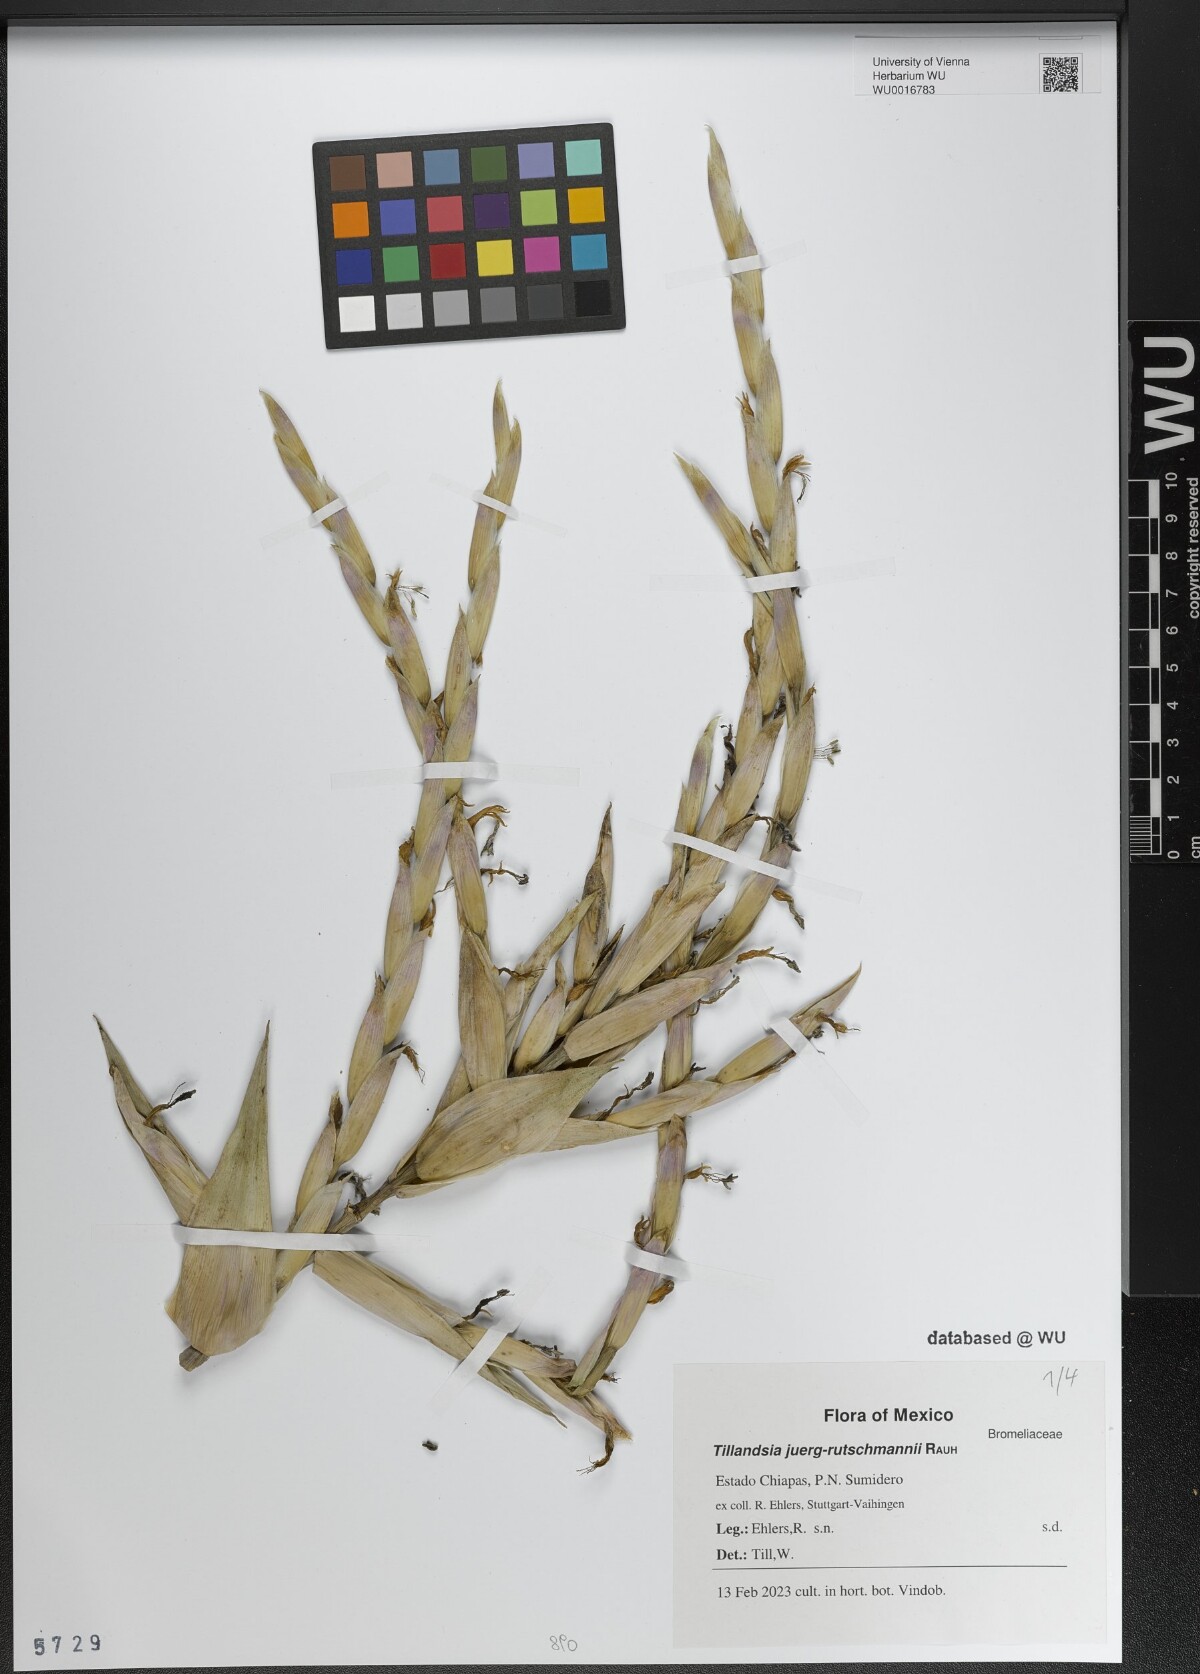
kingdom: Plantae
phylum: Tracheophyta
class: Liliopsida
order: Poales
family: Bromeliaceae
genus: Tillandsia
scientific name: Tillandsia juerg-rutschmannii
